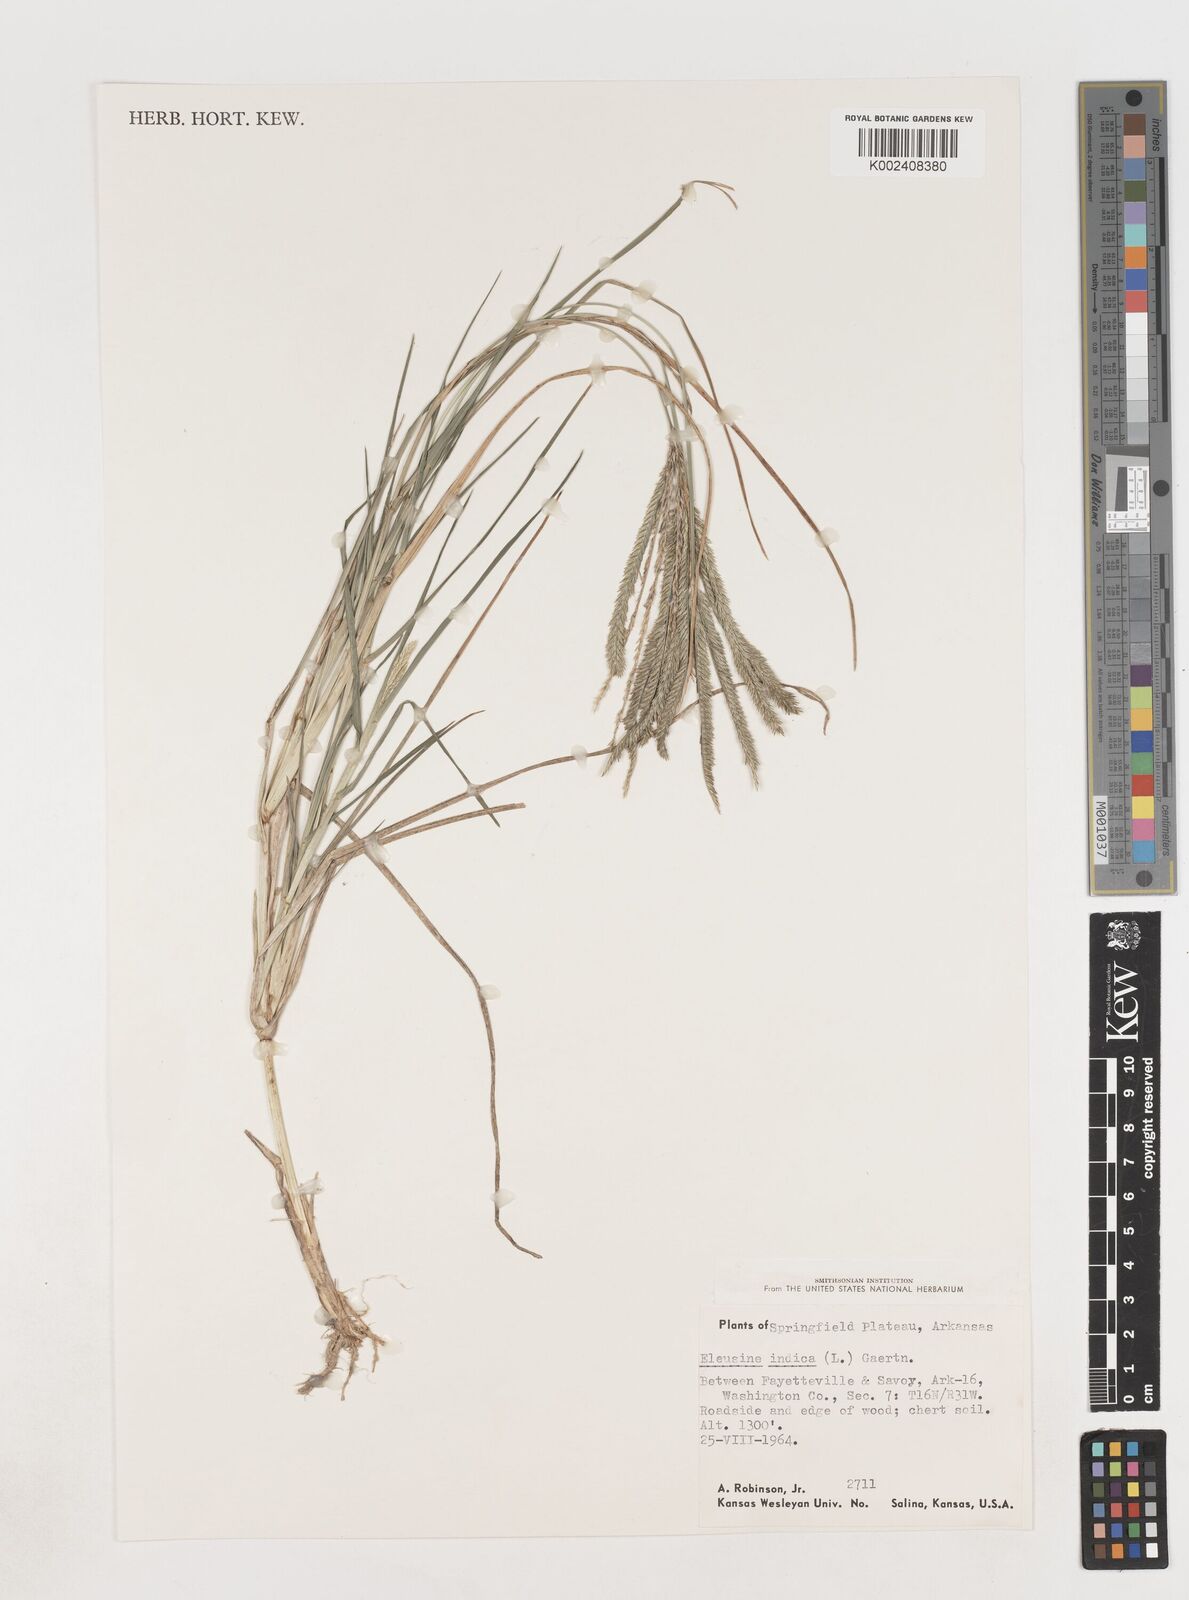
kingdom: Plantae
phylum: Tracheophyta
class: Liliopsida
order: Poales
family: Poaceae
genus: Eleusine
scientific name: Eleusine indica
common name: Yard-grass
